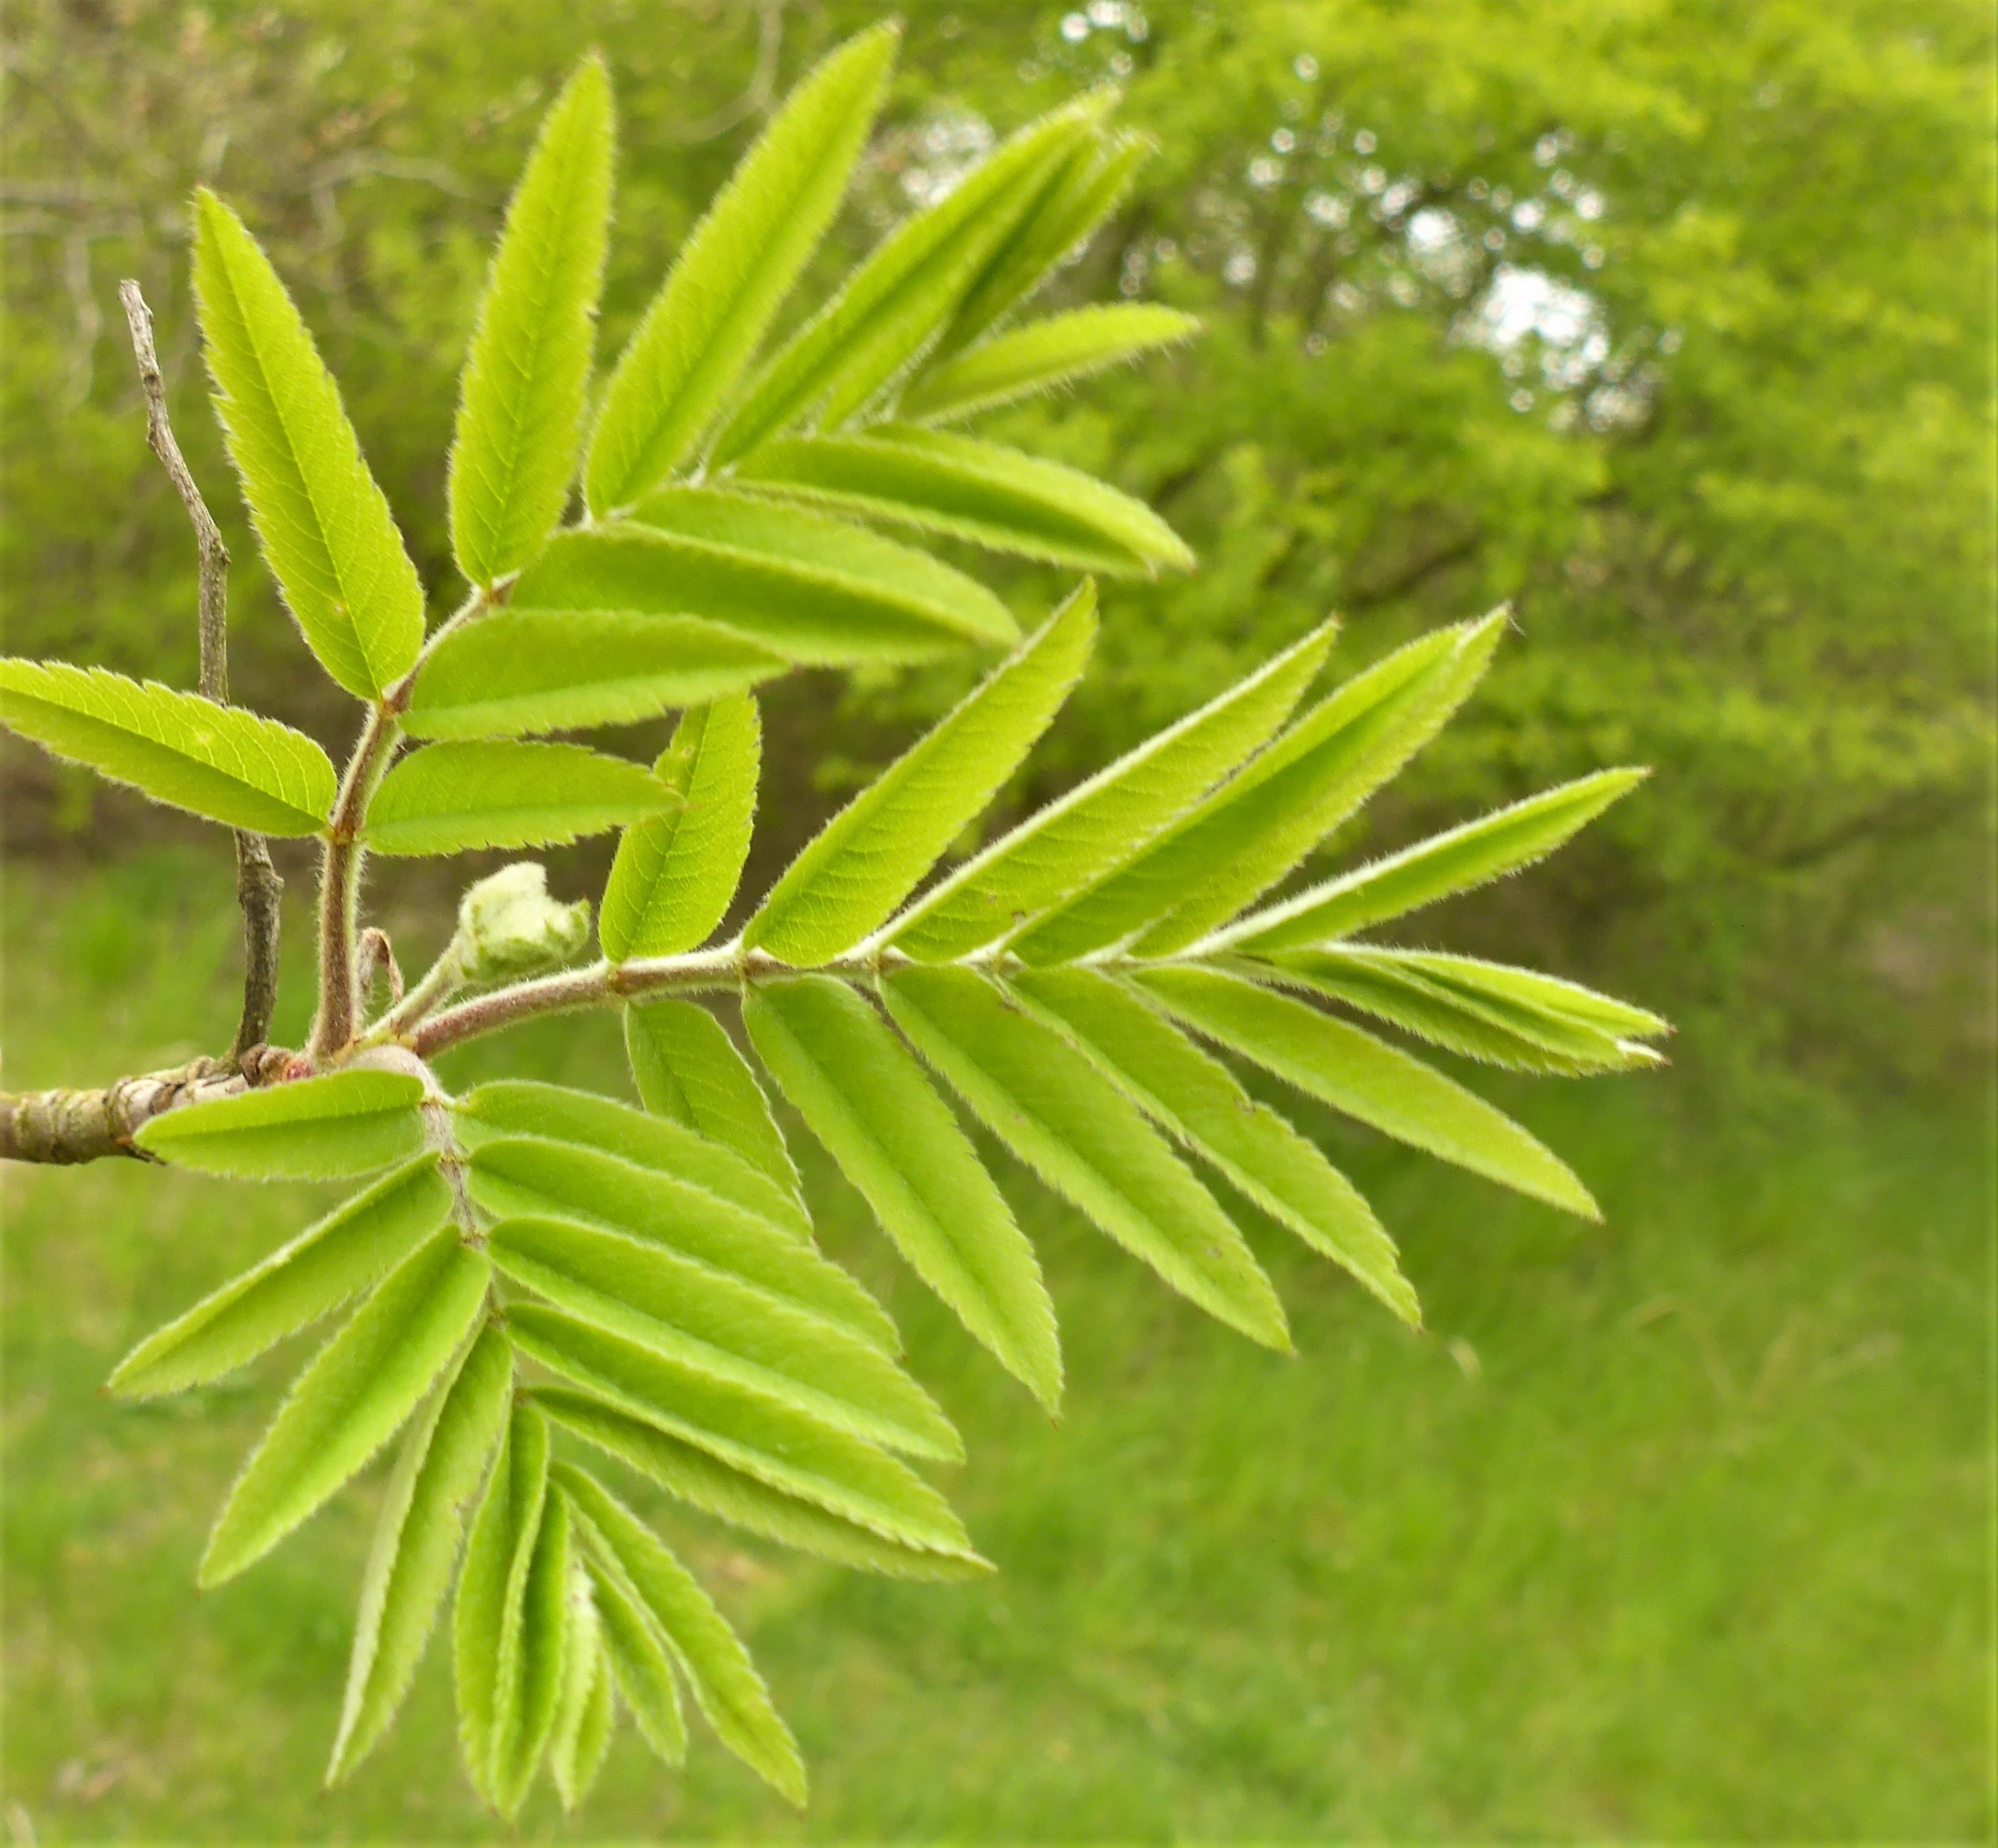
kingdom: Plantae
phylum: Tracheophyta
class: Magnoliopsida
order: Rosales
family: Rosaceae
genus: Sorbus
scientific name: Sorbus aucuparia
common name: Almindelig røn
